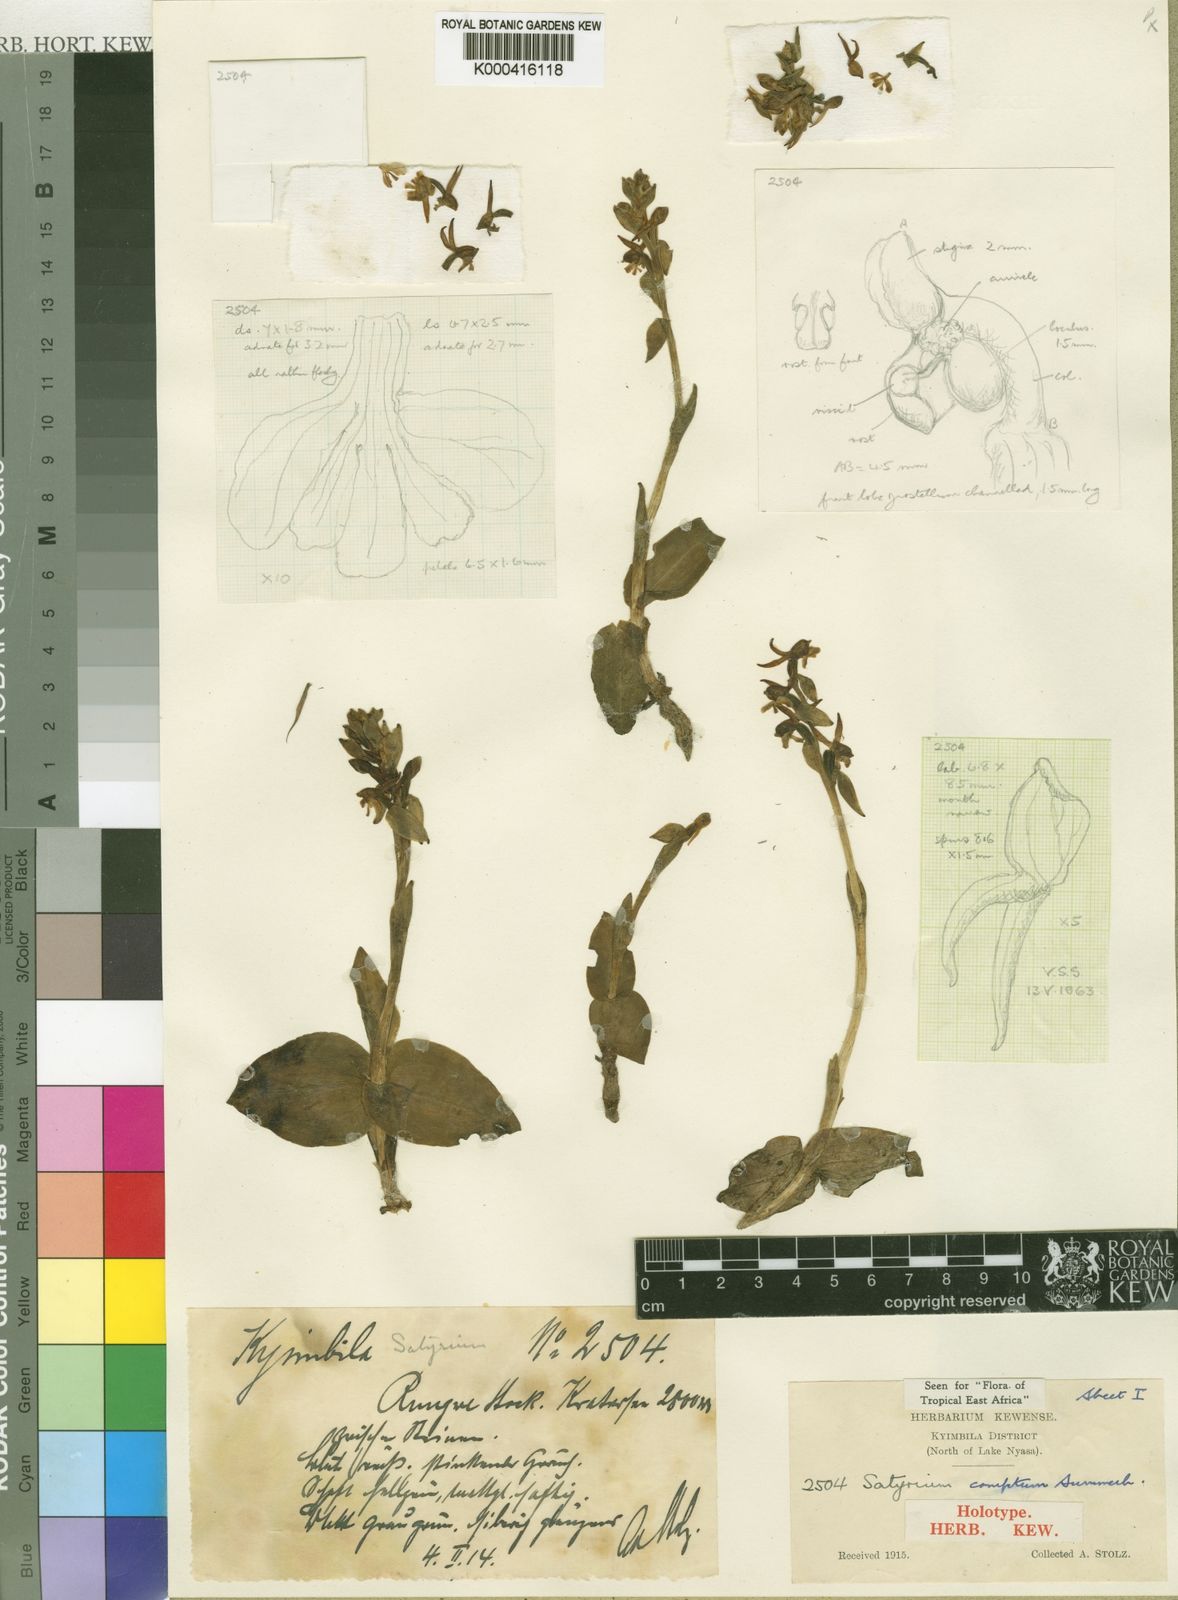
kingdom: Plantae
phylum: Tracheophyta
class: Liliopsida
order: Asparagales
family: Orchidaceae
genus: Satyrium
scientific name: Satyrium comptum
